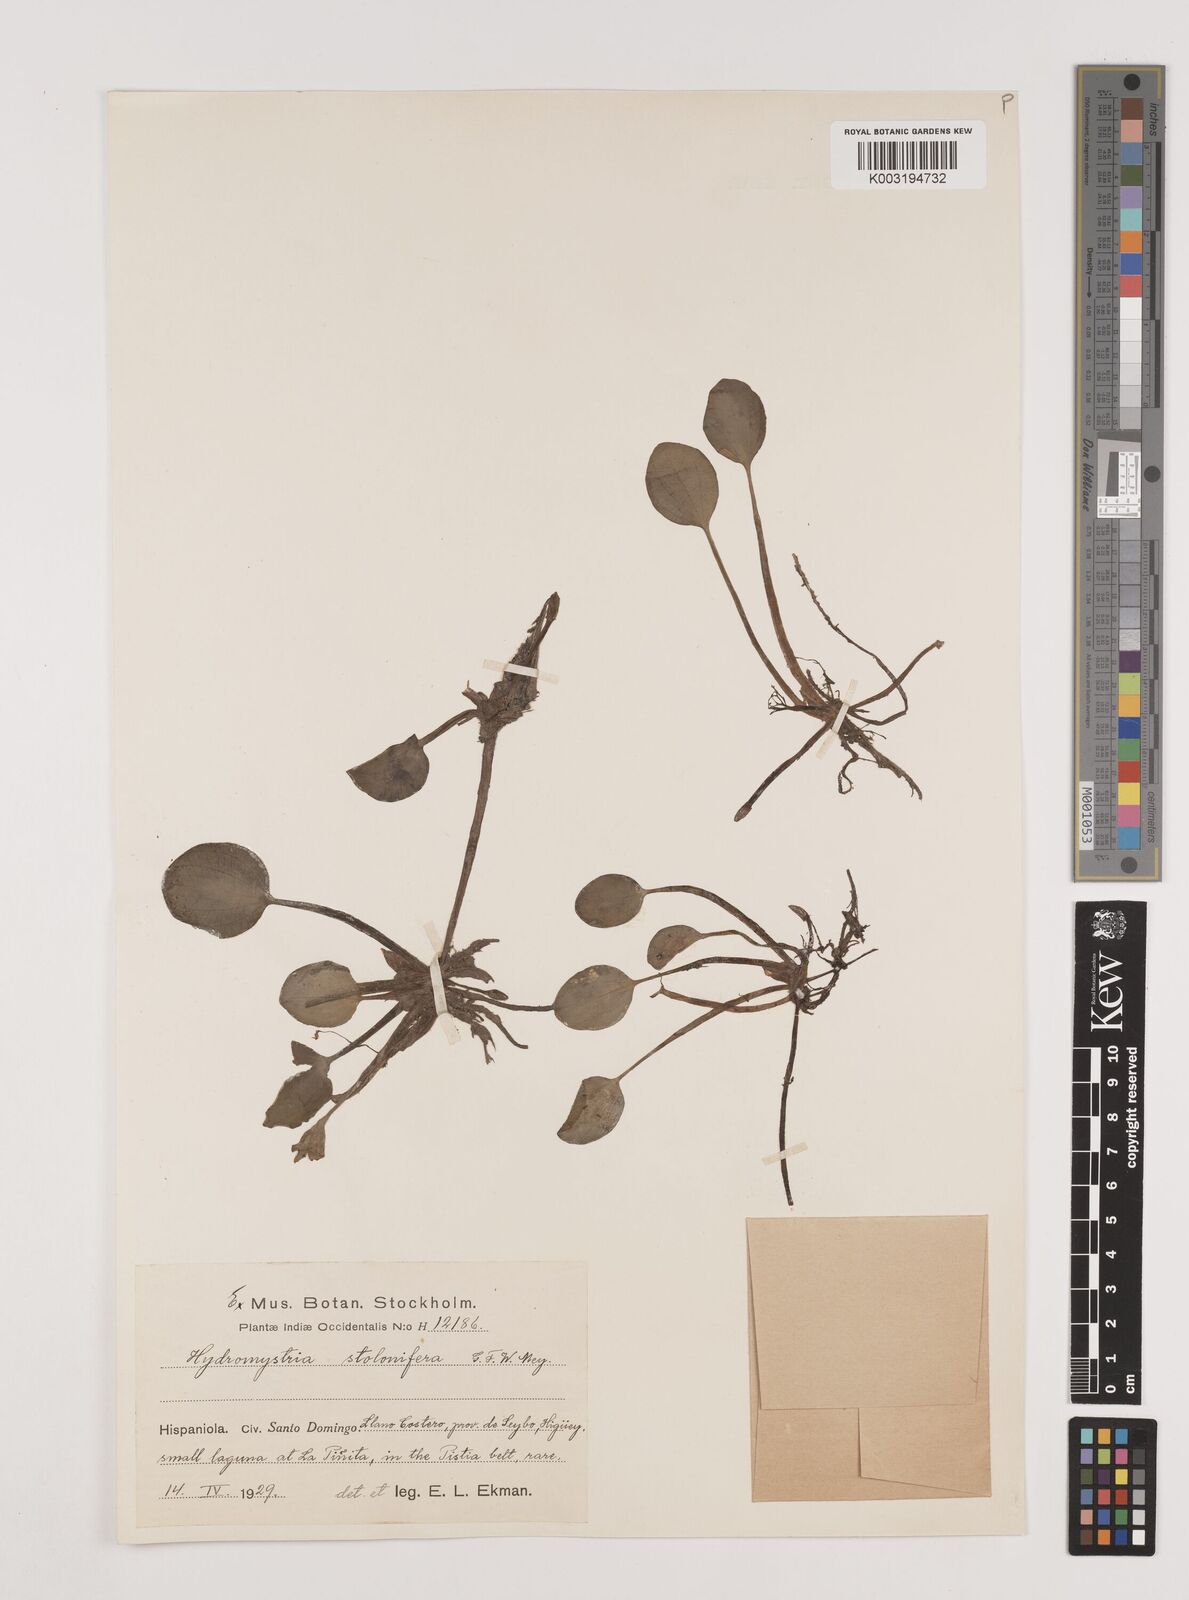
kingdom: Plantae
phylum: Tracheophyta
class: Liliopsida
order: Alismatales
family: Hydrocharitaceae
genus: Hydrocharis
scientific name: Hydrocharis laevigata
